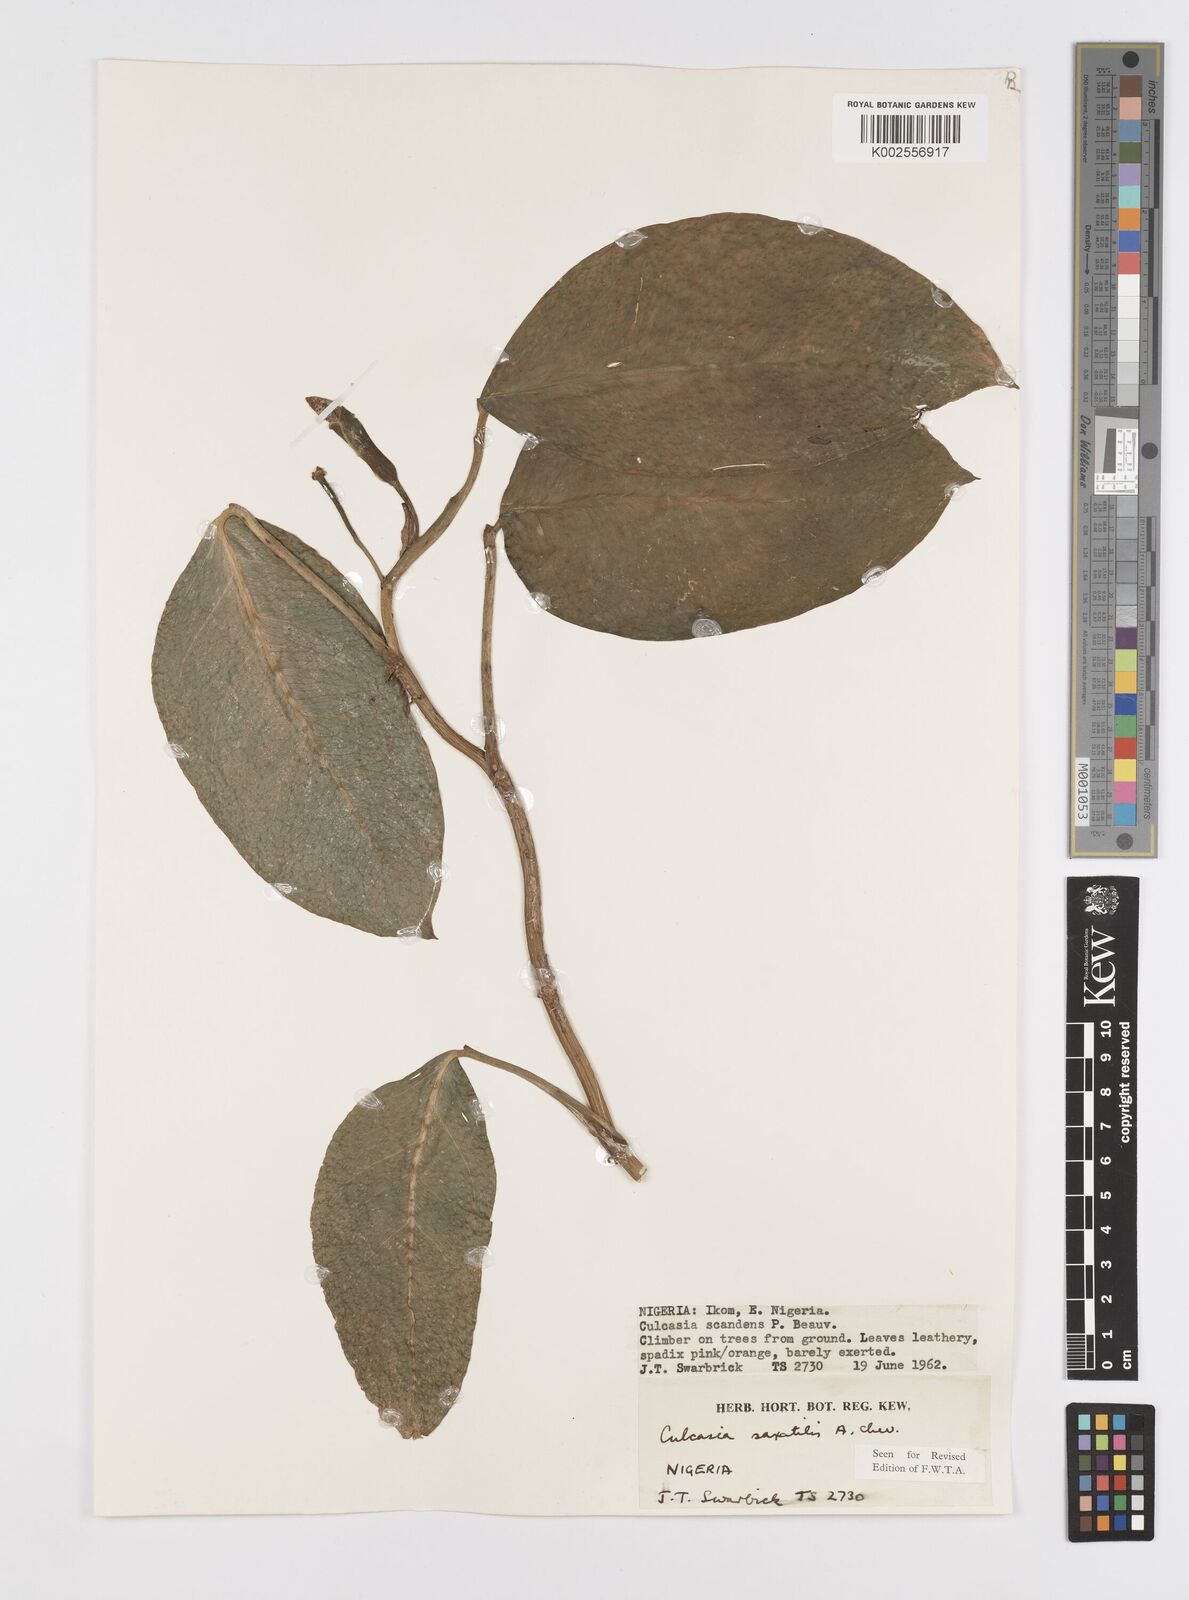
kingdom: Plantae
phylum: Tracheophyta
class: Liliopsida
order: Alismatales
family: Araceae
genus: Culcasia
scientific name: Culcasia scandens
